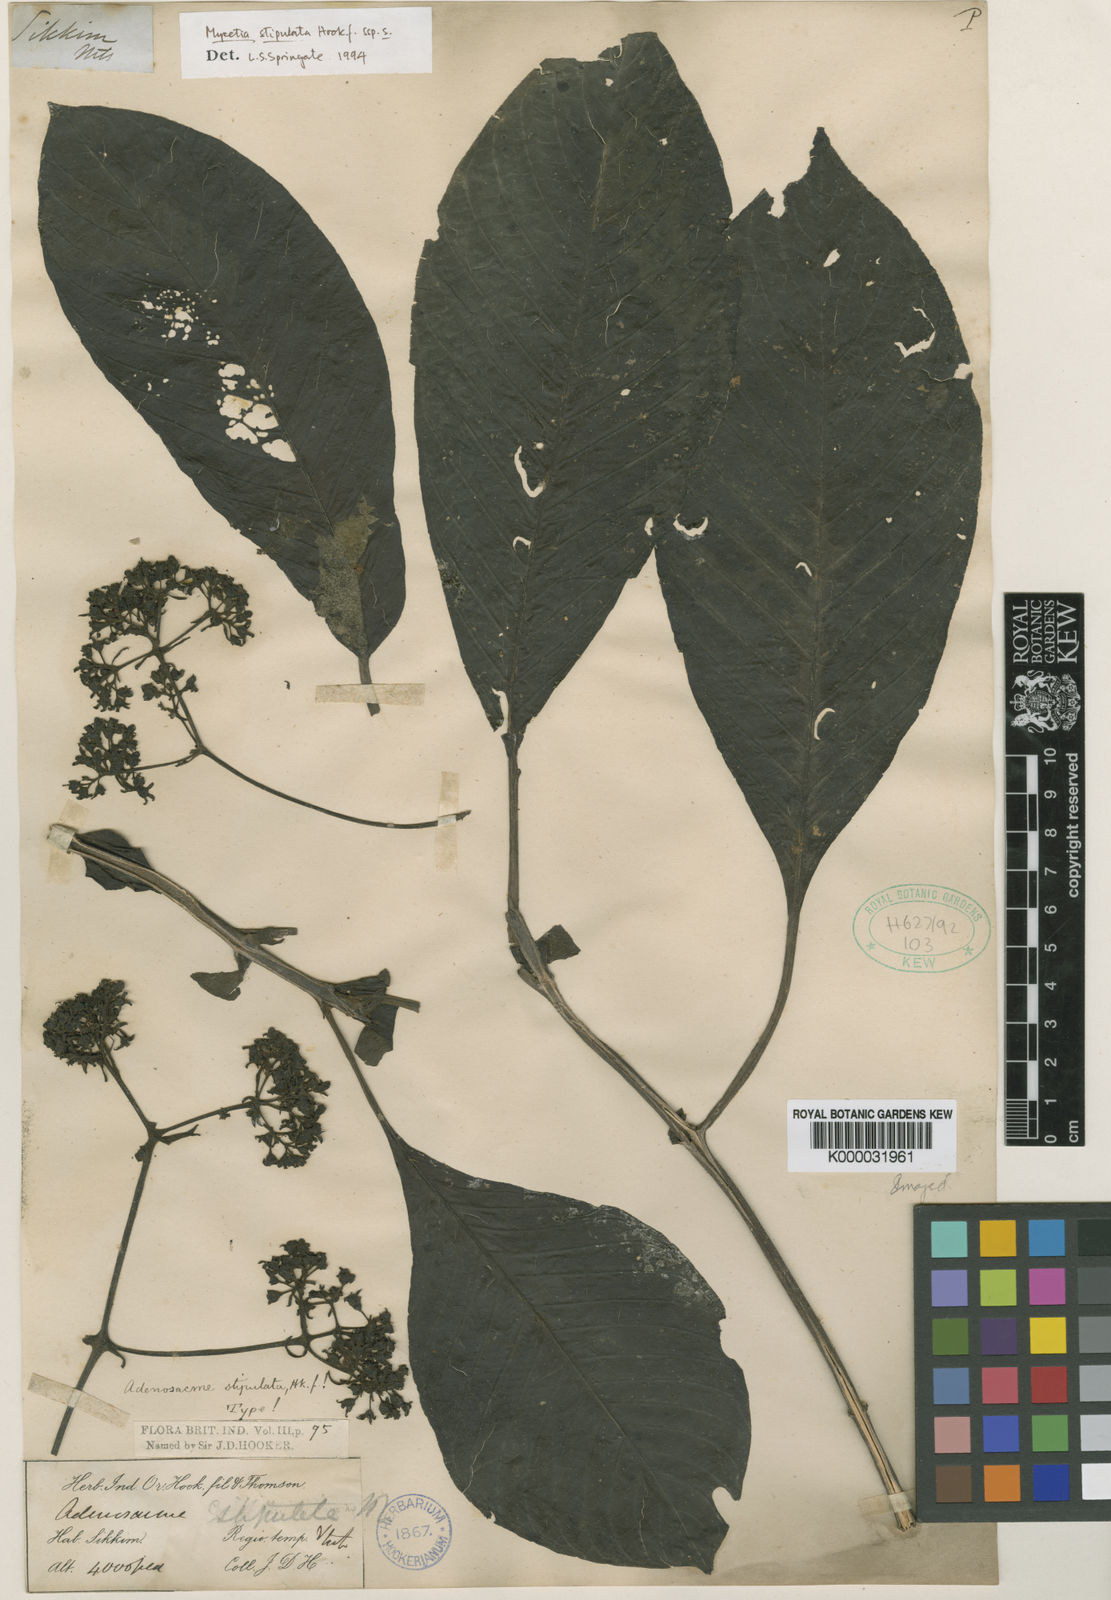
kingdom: Plantae
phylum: Tracheophyta
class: Magnoliopsida
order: Gentianales
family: Rubiaceae
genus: Mycetia
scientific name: Mycetia stipulata
